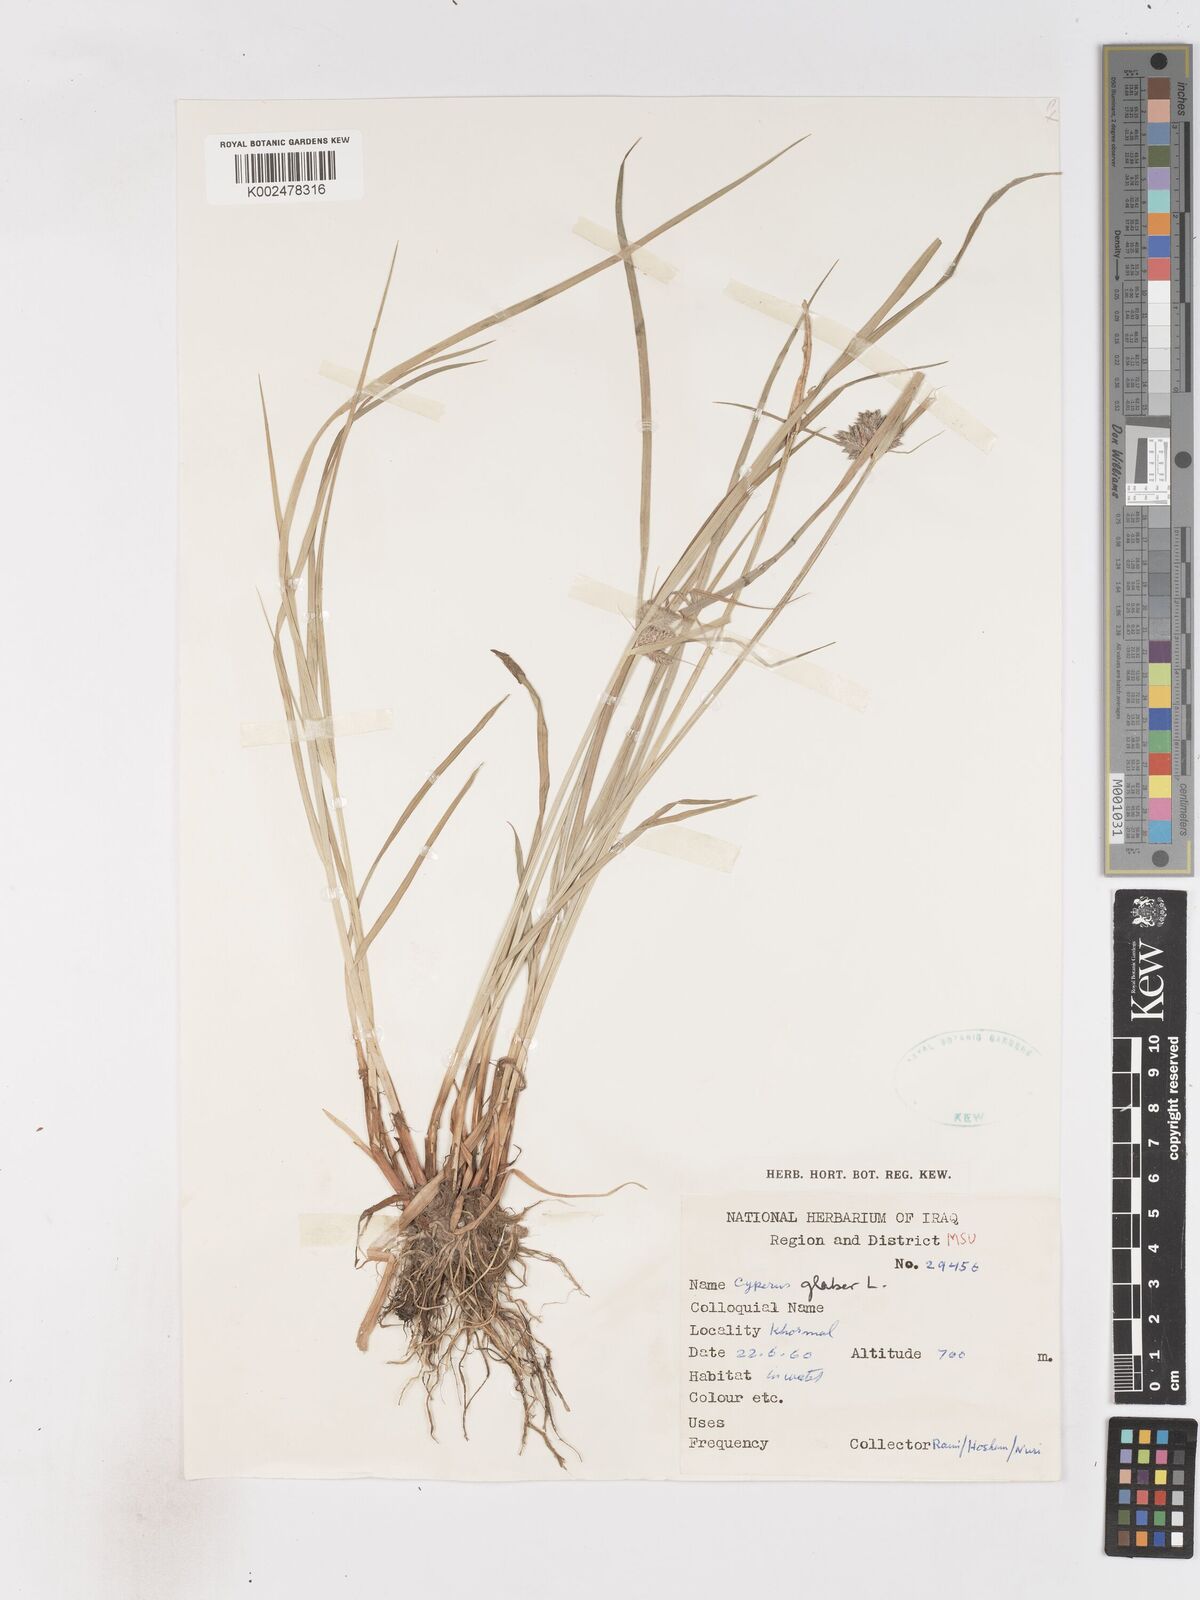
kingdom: Plantae
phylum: Tracheophyta
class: Liliopsida
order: Poales
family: Cyperaceae
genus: Cyperus
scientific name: Cyperus glaber
